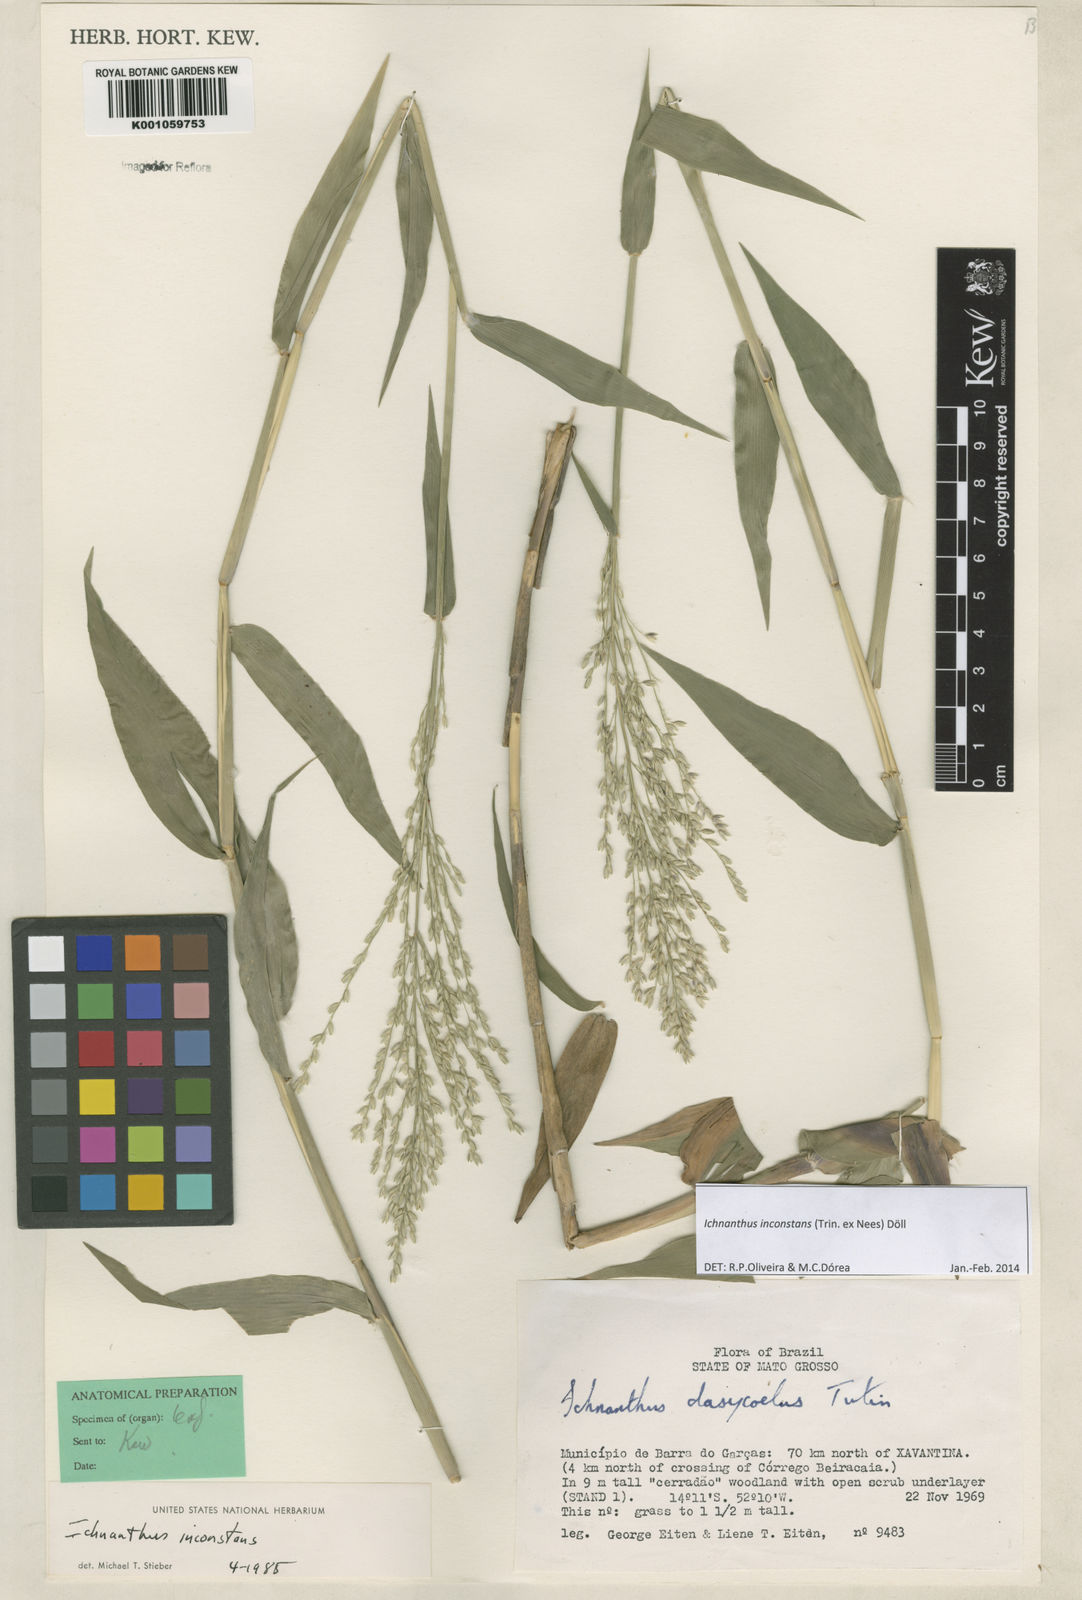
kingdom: Plantae
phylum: Tracheophyta
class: Liliopsida
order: Poales
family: Poaceae
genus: Ichnanthus
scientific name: Ichnanthus
